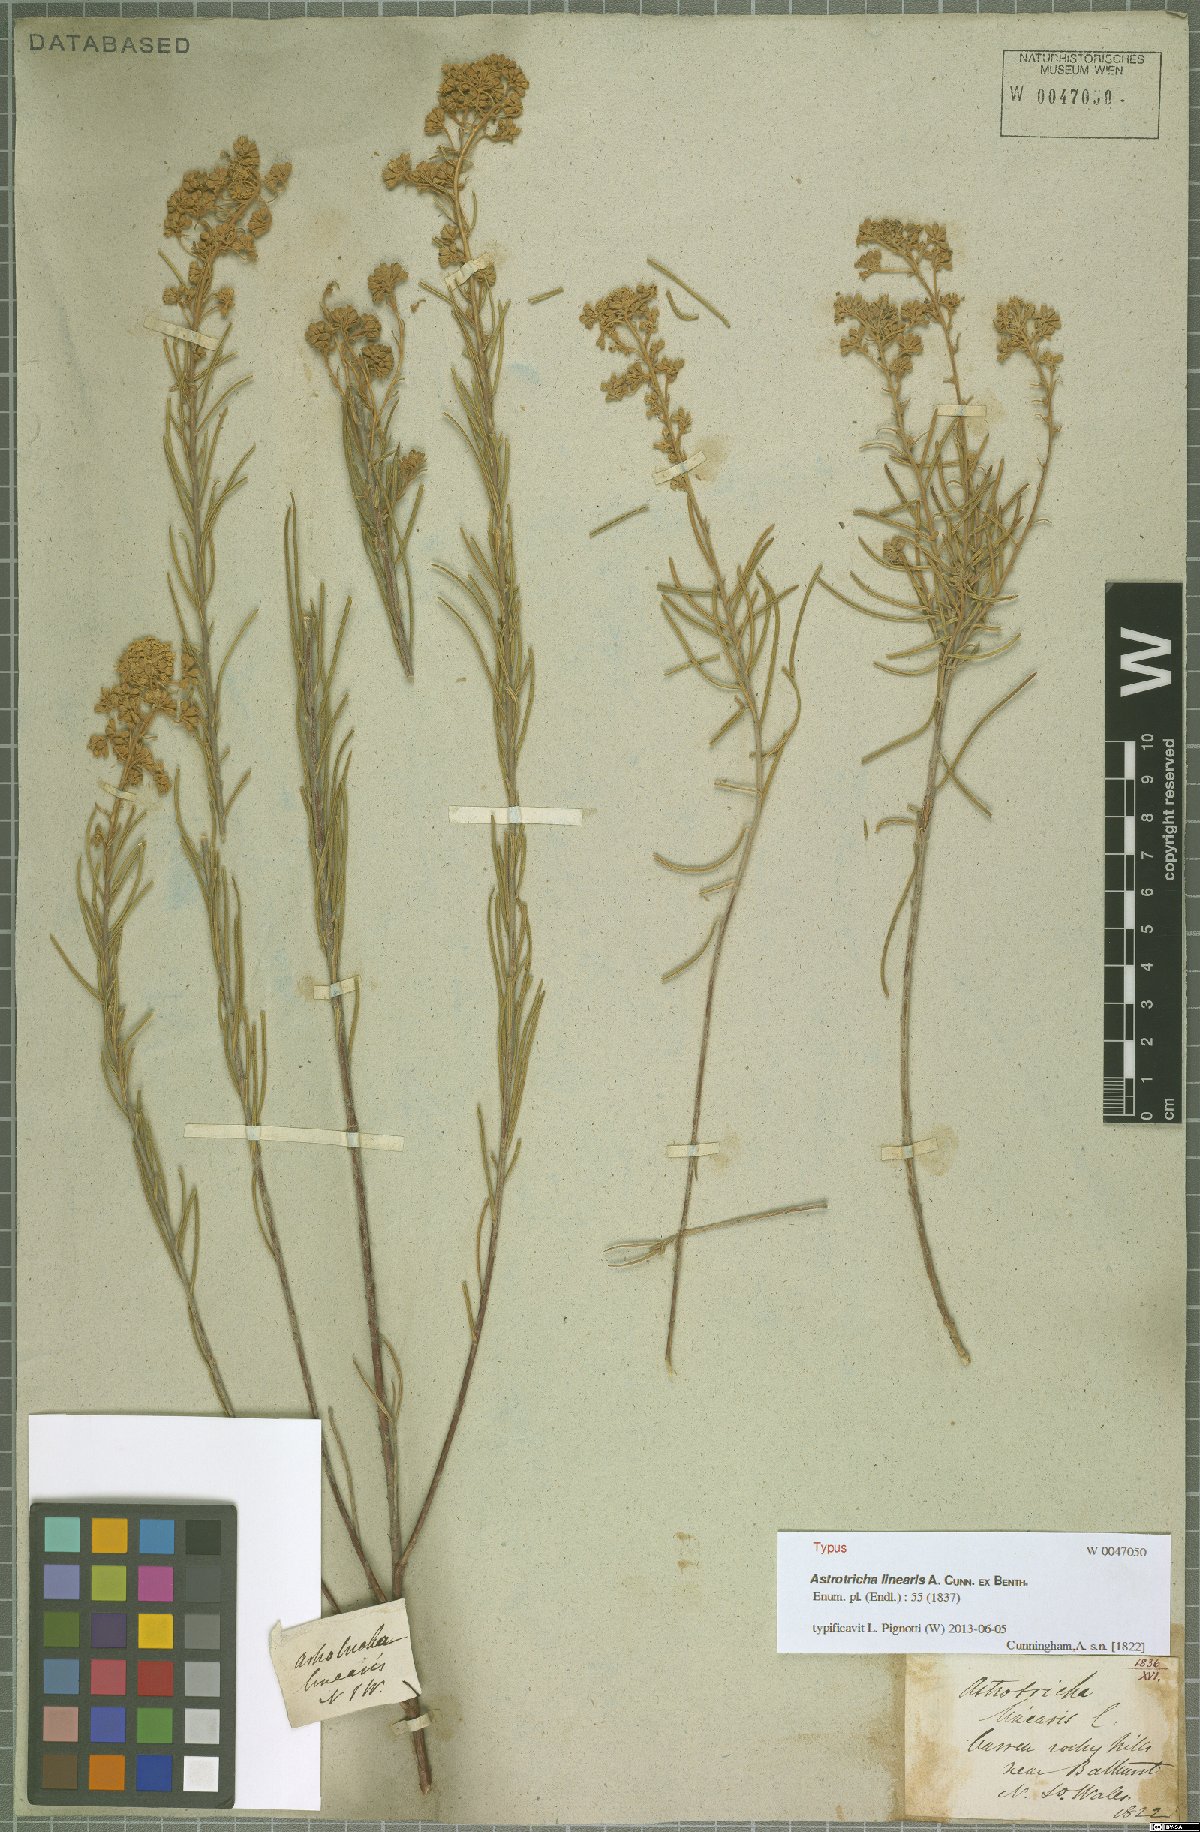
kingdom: Plantae
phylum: Tracheophyta
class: Magnoliopsida
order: Apiales
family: Araliaceae
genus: Astrotricha
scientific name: Astrotricha linearis
